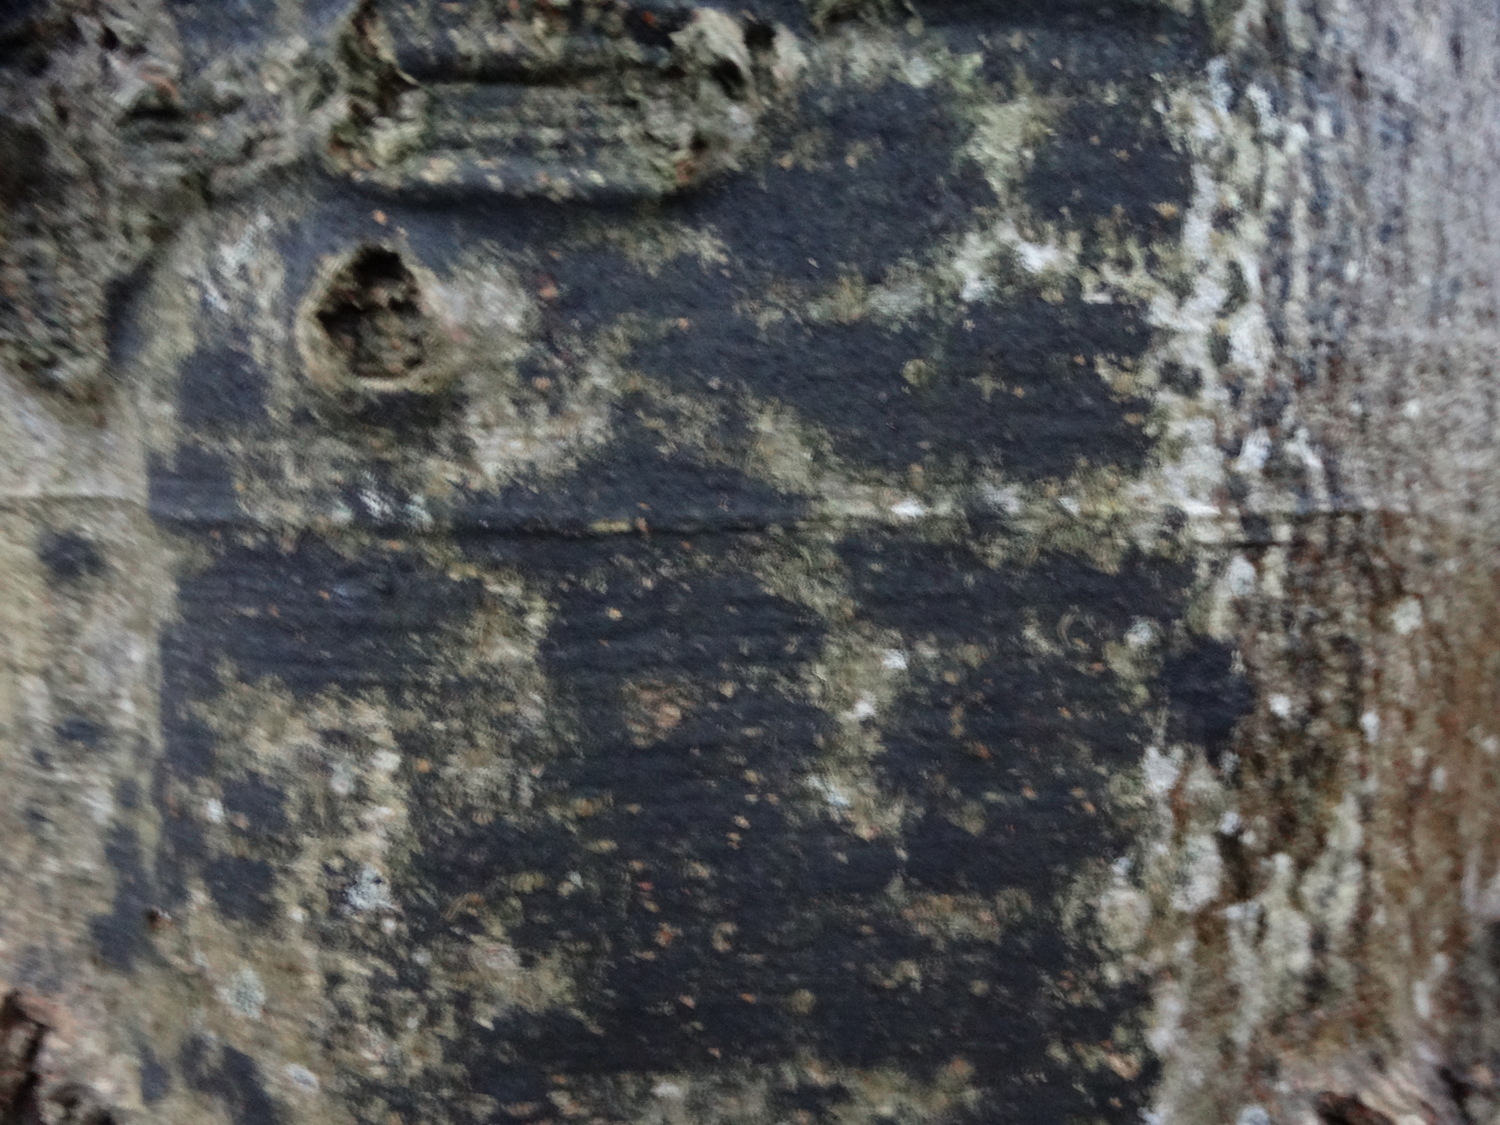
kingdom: Fungi
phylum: Ascomycota
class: Leotiomycetes
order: Rhytismatales
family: Ascodichaenaceae
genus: Ascodichaena
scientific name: Ascodichaena rugosa
